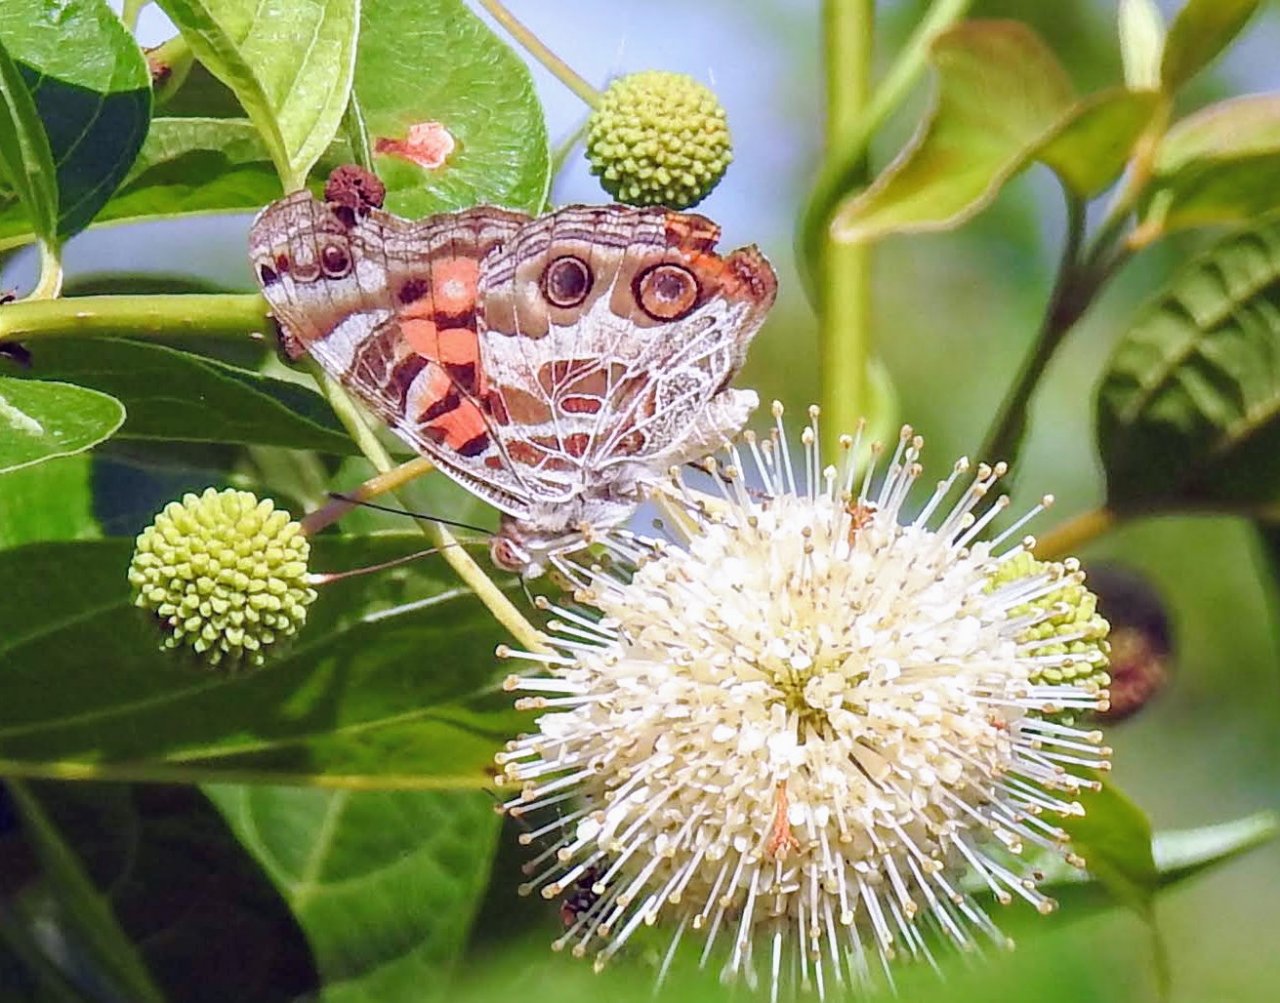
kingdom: Animalia
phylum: Arthropoda
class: Insecta
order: Lepidoptera
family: Nymphalidae
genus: Vanessa
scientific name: Vanessa virginiensis
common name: American Lady
